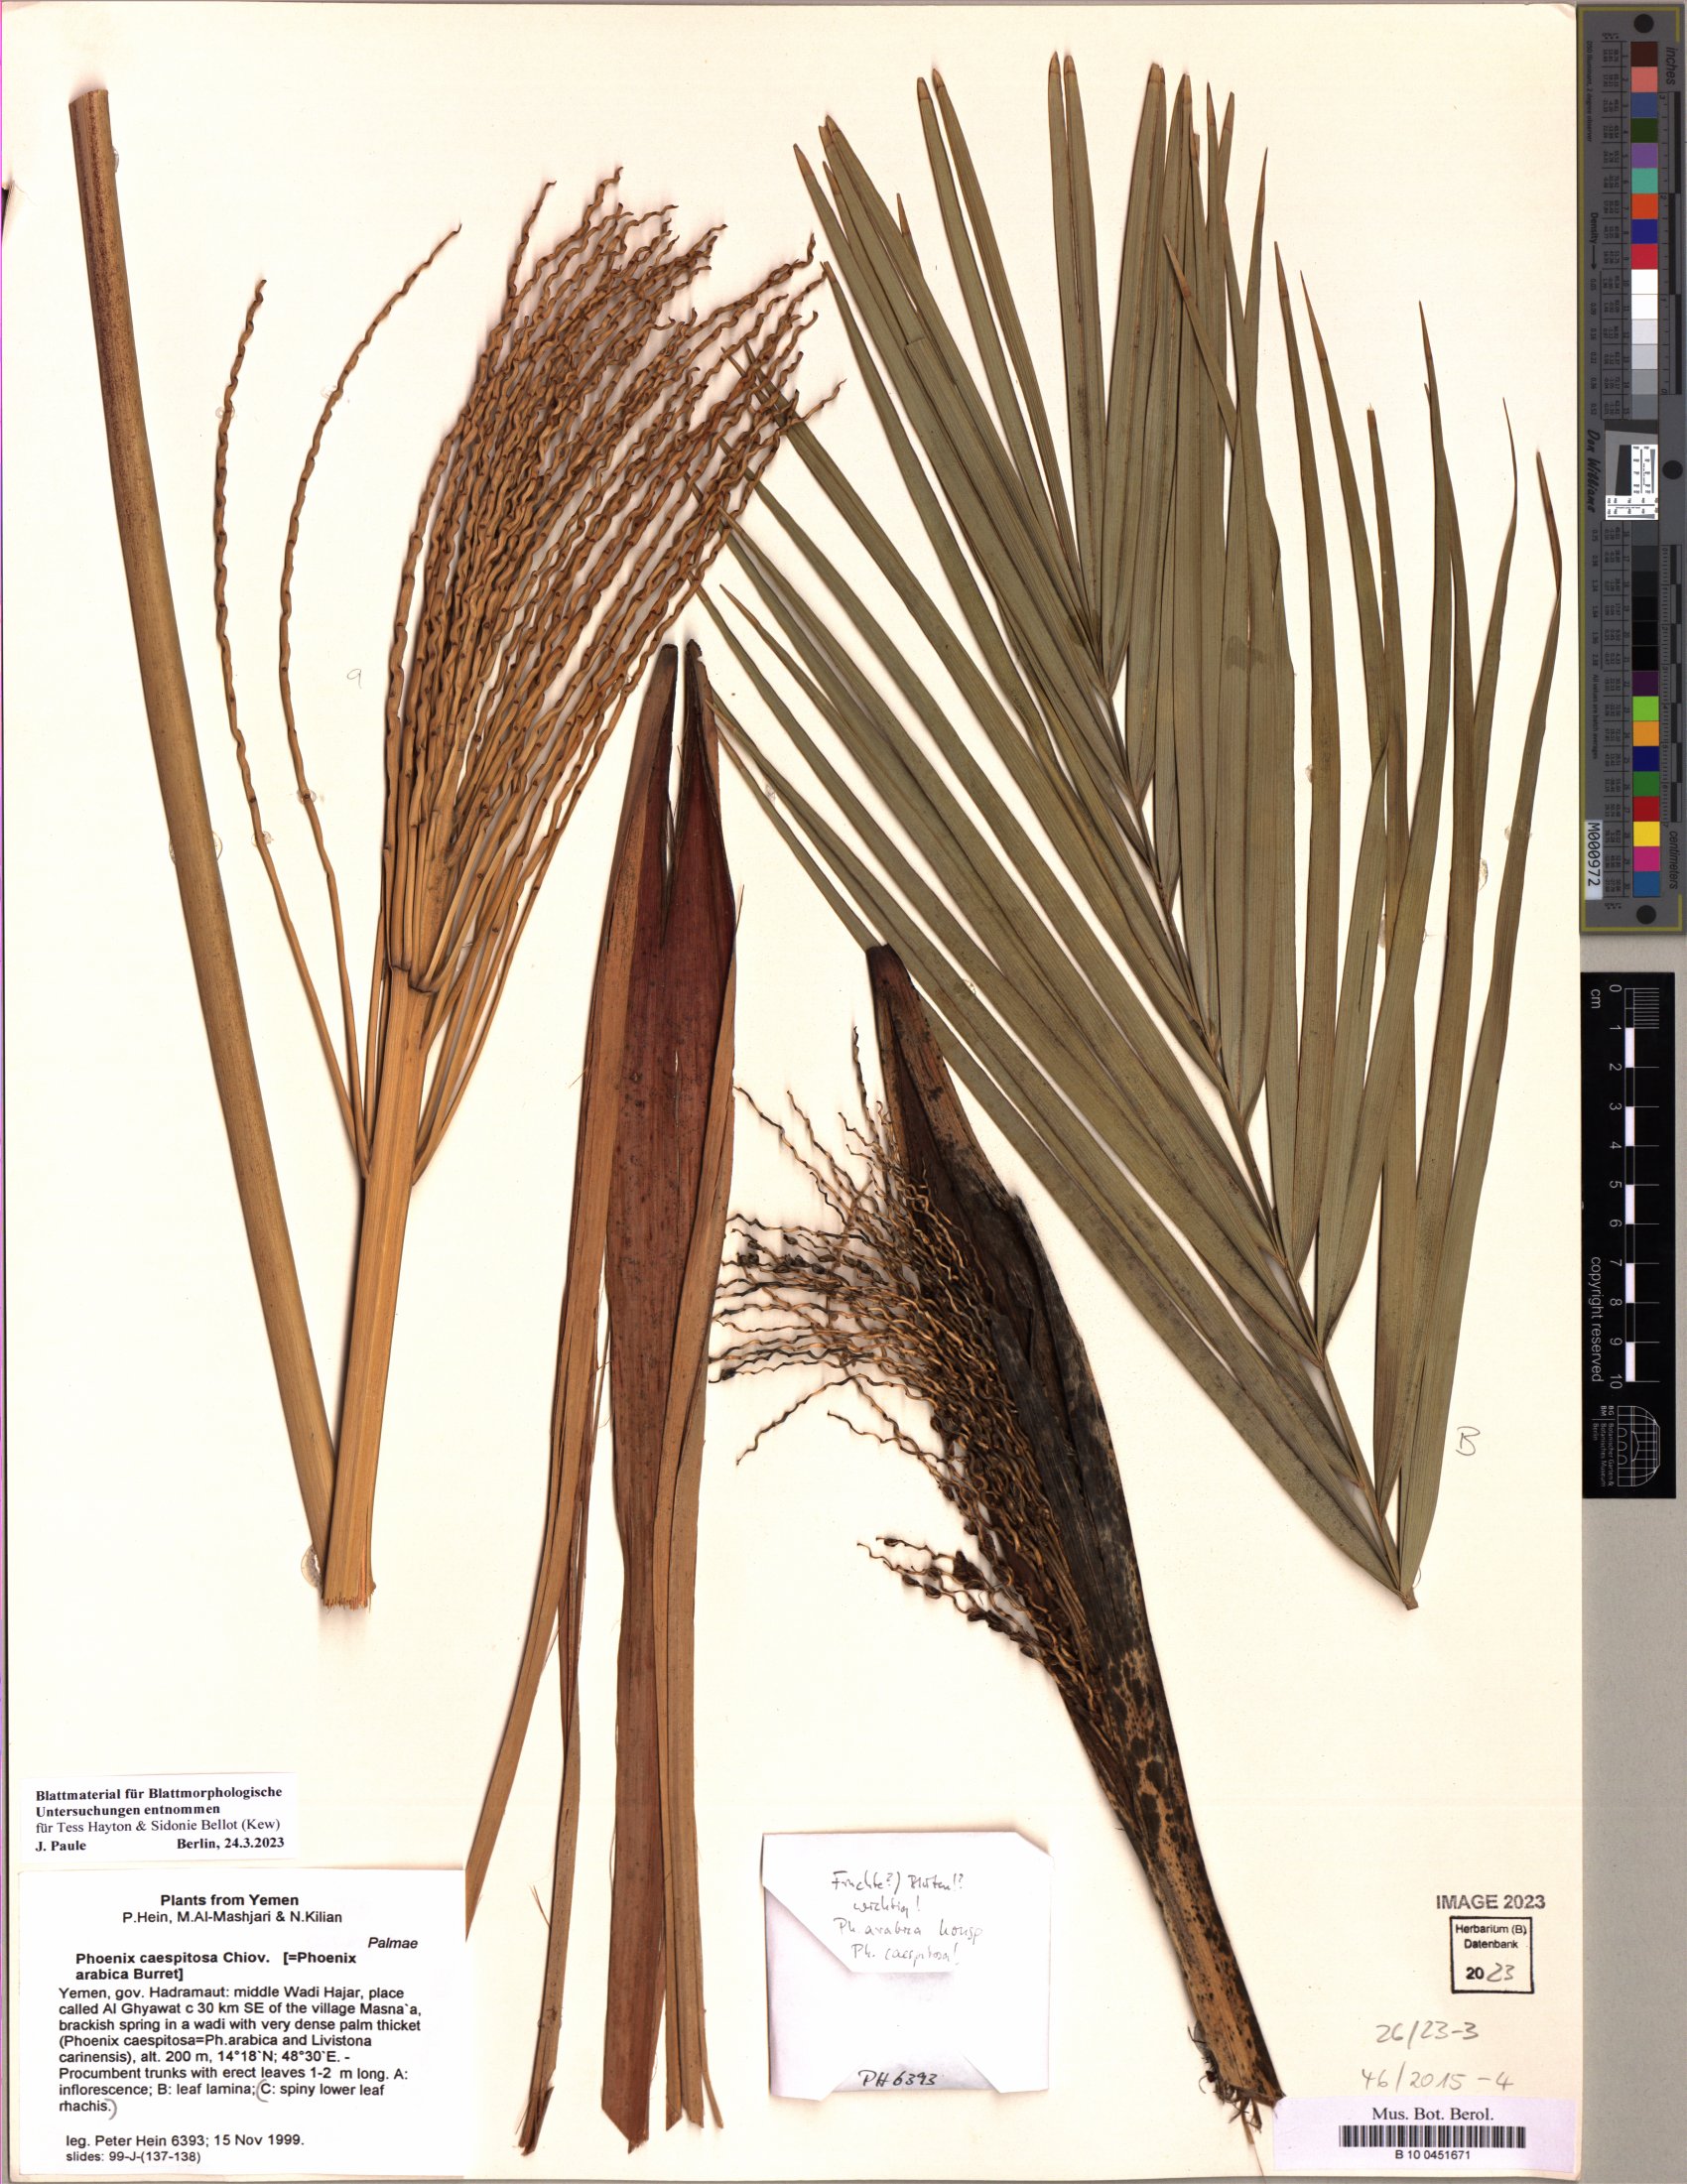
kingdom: Plantae
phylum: Tracheophyta
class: Liliopsida
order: Arecales
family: Arecaceae
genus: Phoenix
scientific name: Phoenix caespitosa
